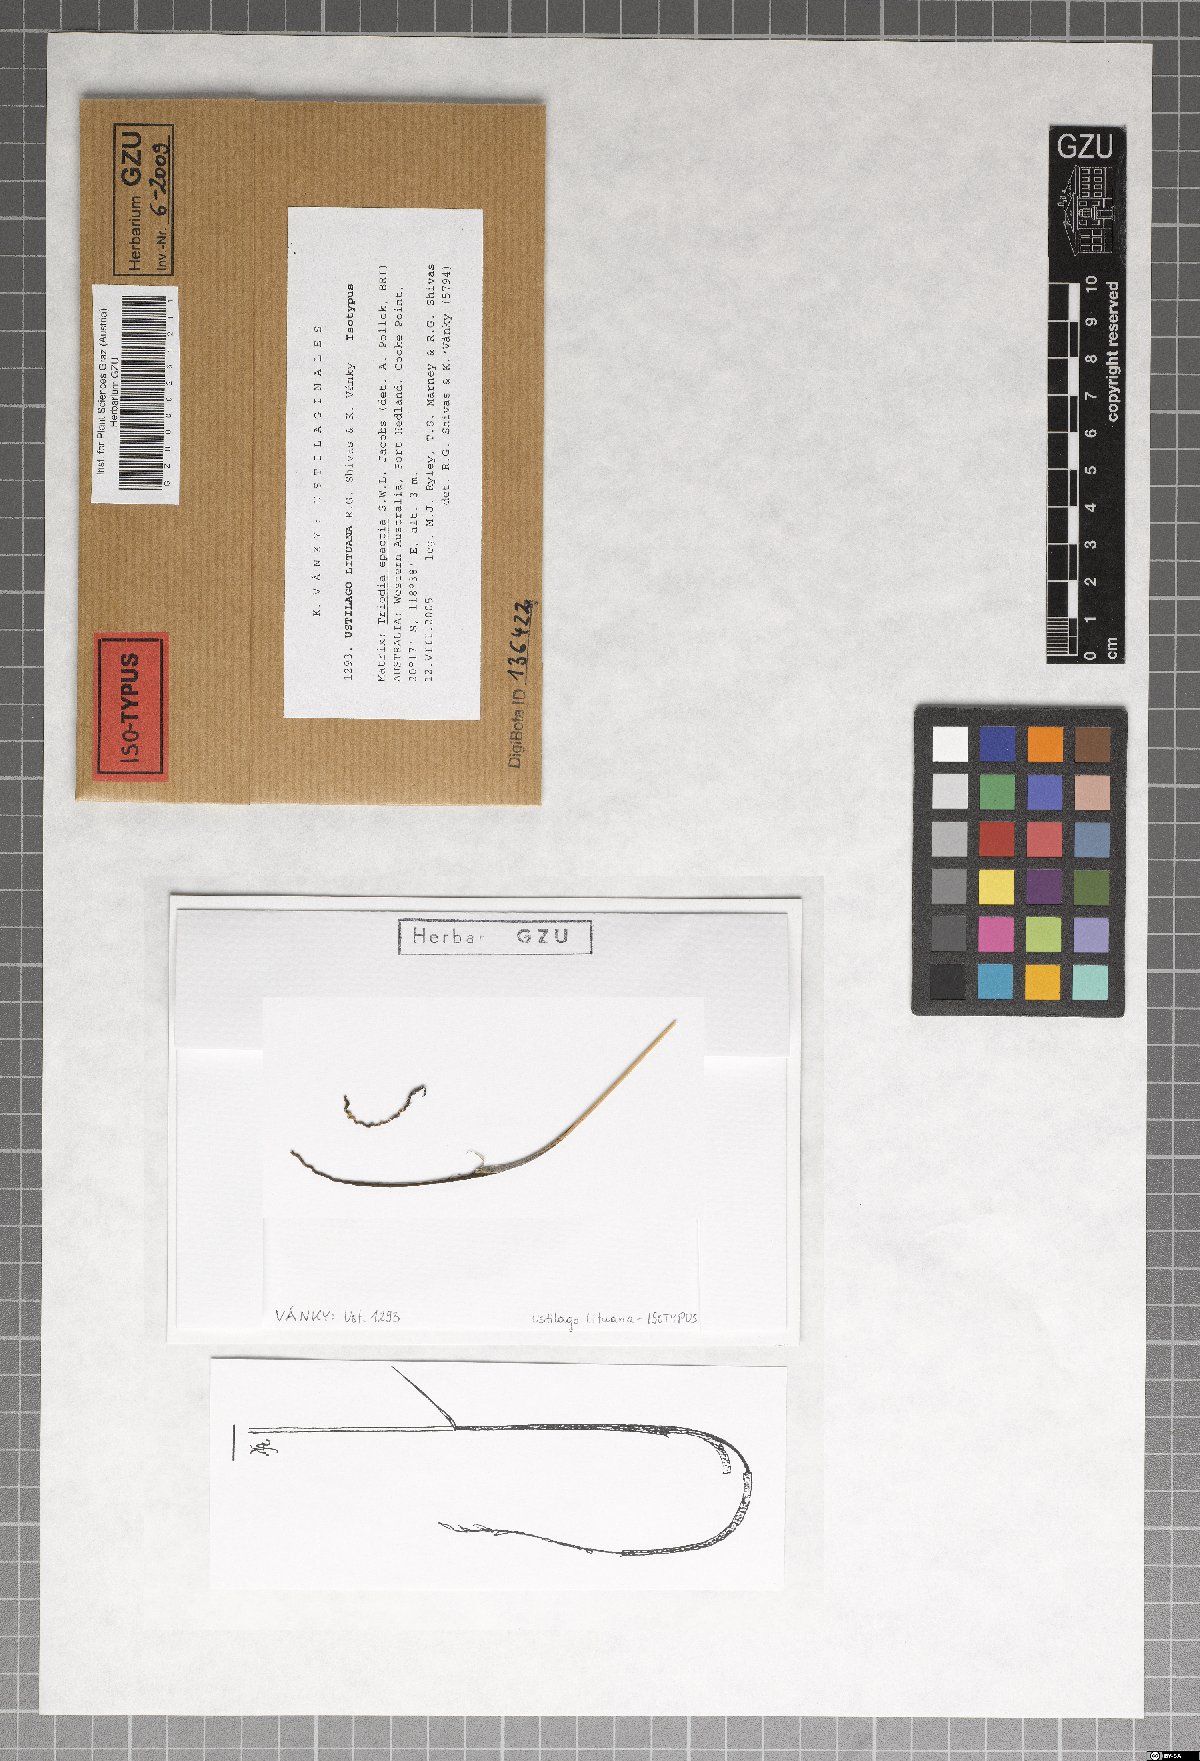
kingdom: Fungi
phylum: Basidiomycota
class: Ustilaginomycetes
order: Ustilaginales
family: Ustilaginaceae
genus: Triodiomyces
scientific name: Triodiomyces lituanus
